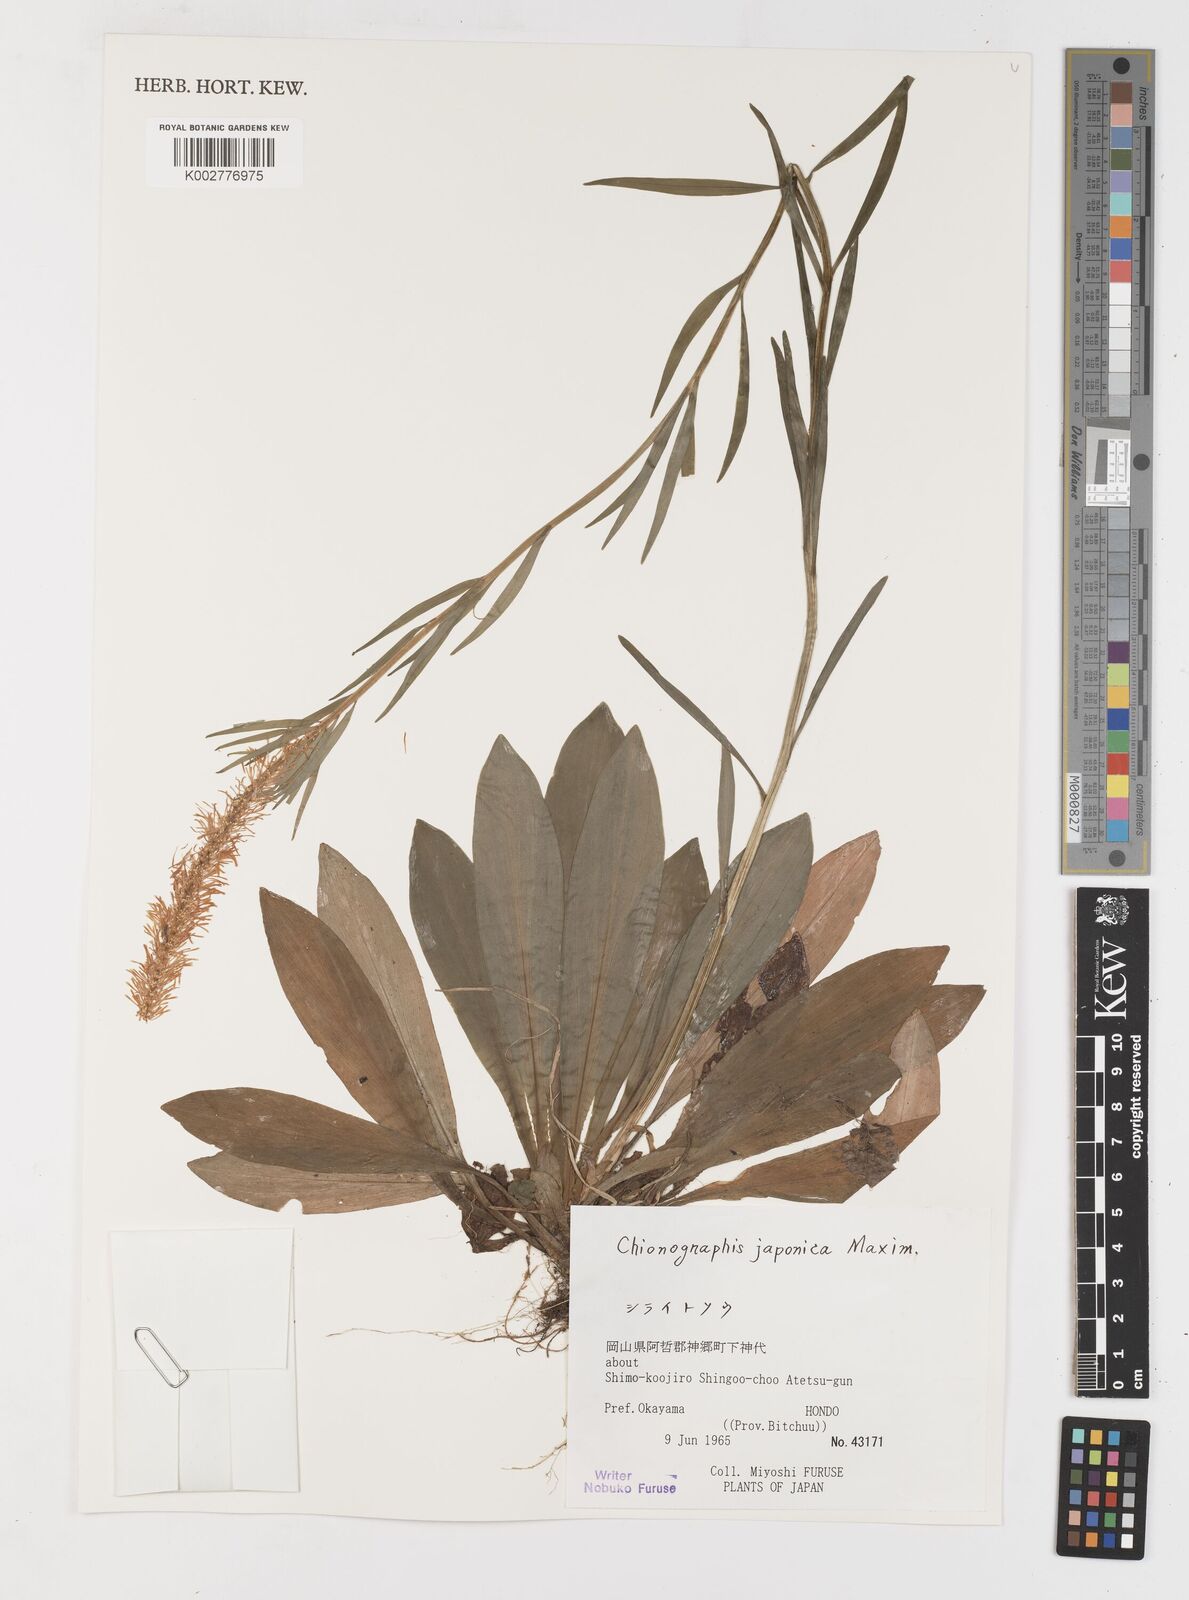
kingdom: Plantae
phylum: Tracheophyta
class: Liliopsida
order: Liliales
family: Melanthiaceae
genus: Chamaelirium
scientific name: Chamaelirium japonicum
